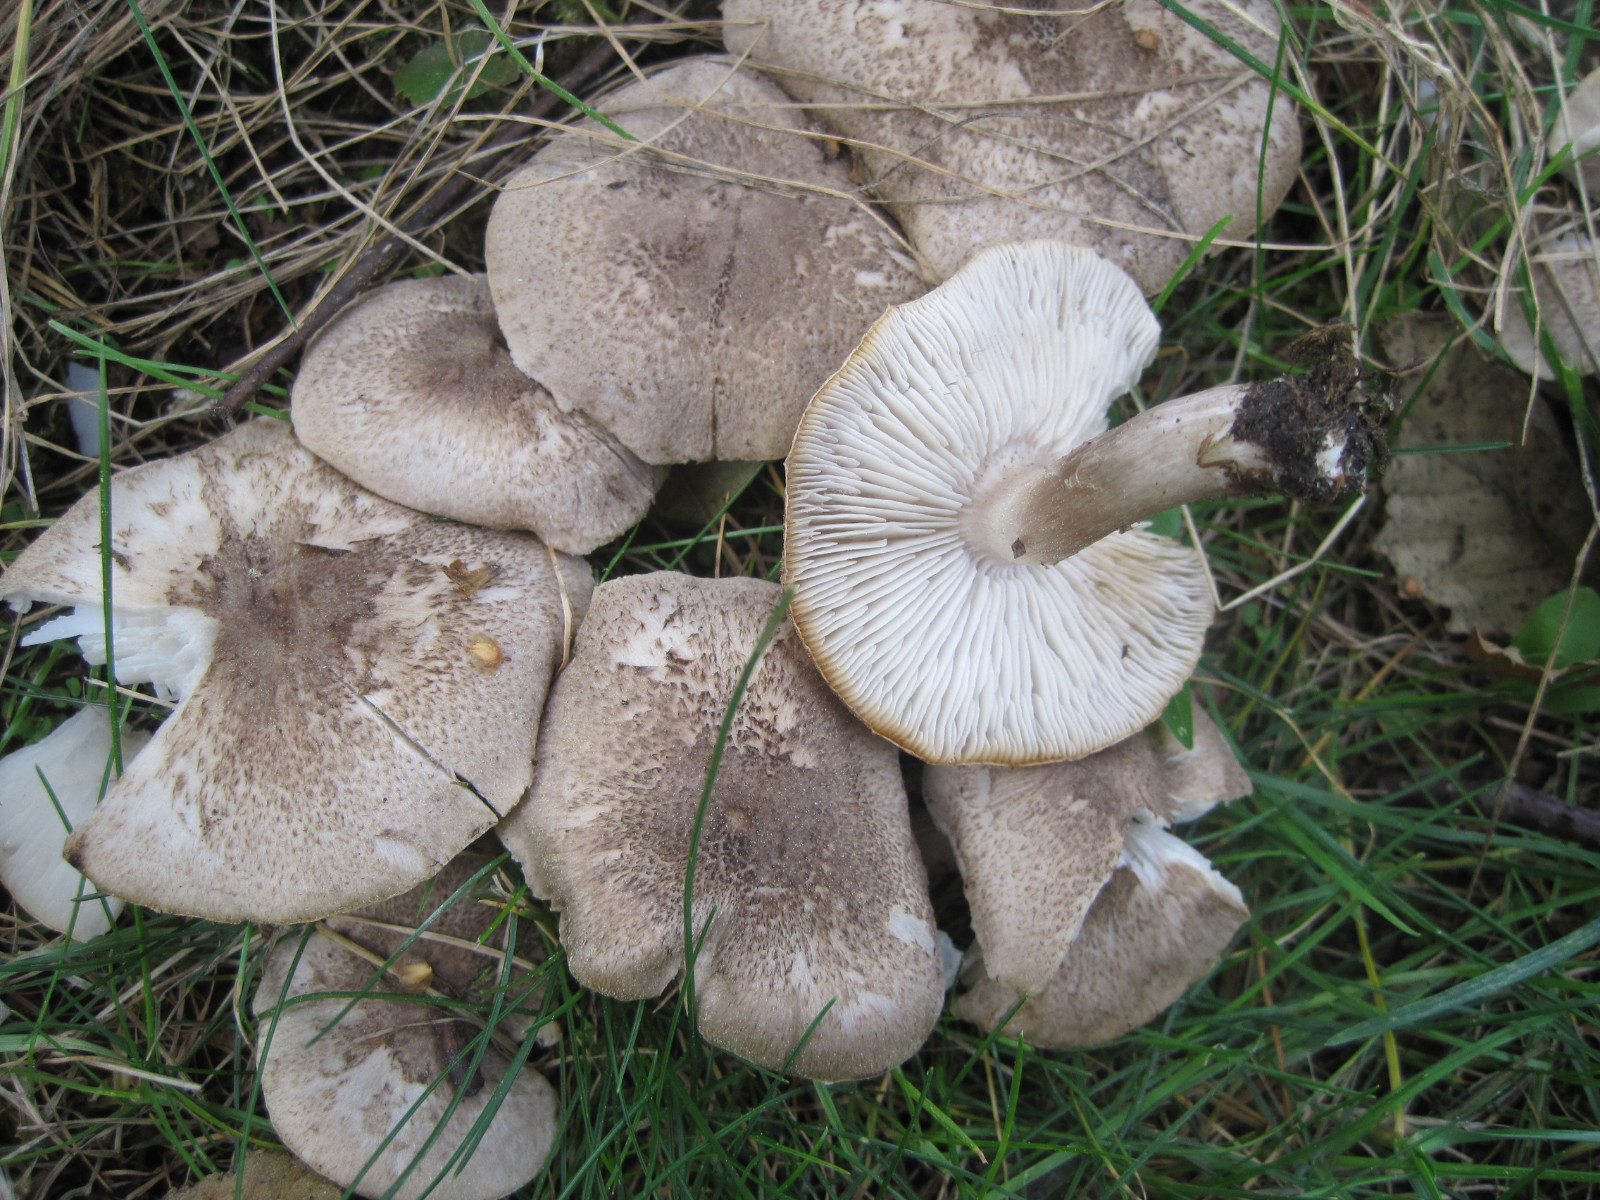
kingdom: Fungi
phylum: Basidiomycota
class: Agaricomycetes
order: Agaricales
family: Tricholomataceae
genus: Tricholoma
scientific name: Tricholoma scalpturatum
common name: gulplettet ridderhat
